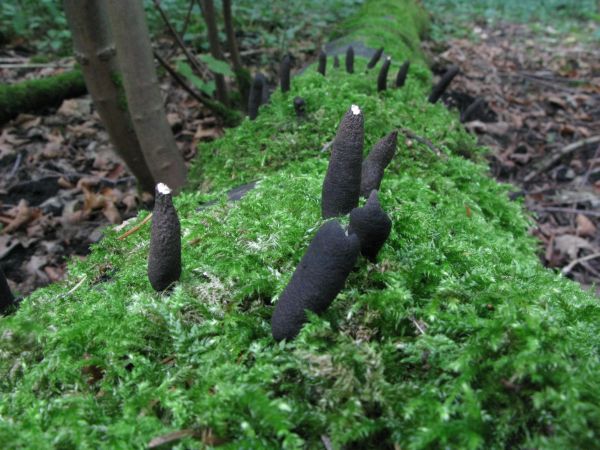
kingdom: Fungi
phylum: Ascomycota
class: Sordariomycetes
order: Xylariales
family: Xylariaceae
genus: Xylaria
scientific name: Xylaria longipes
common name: slank stødsvamp
